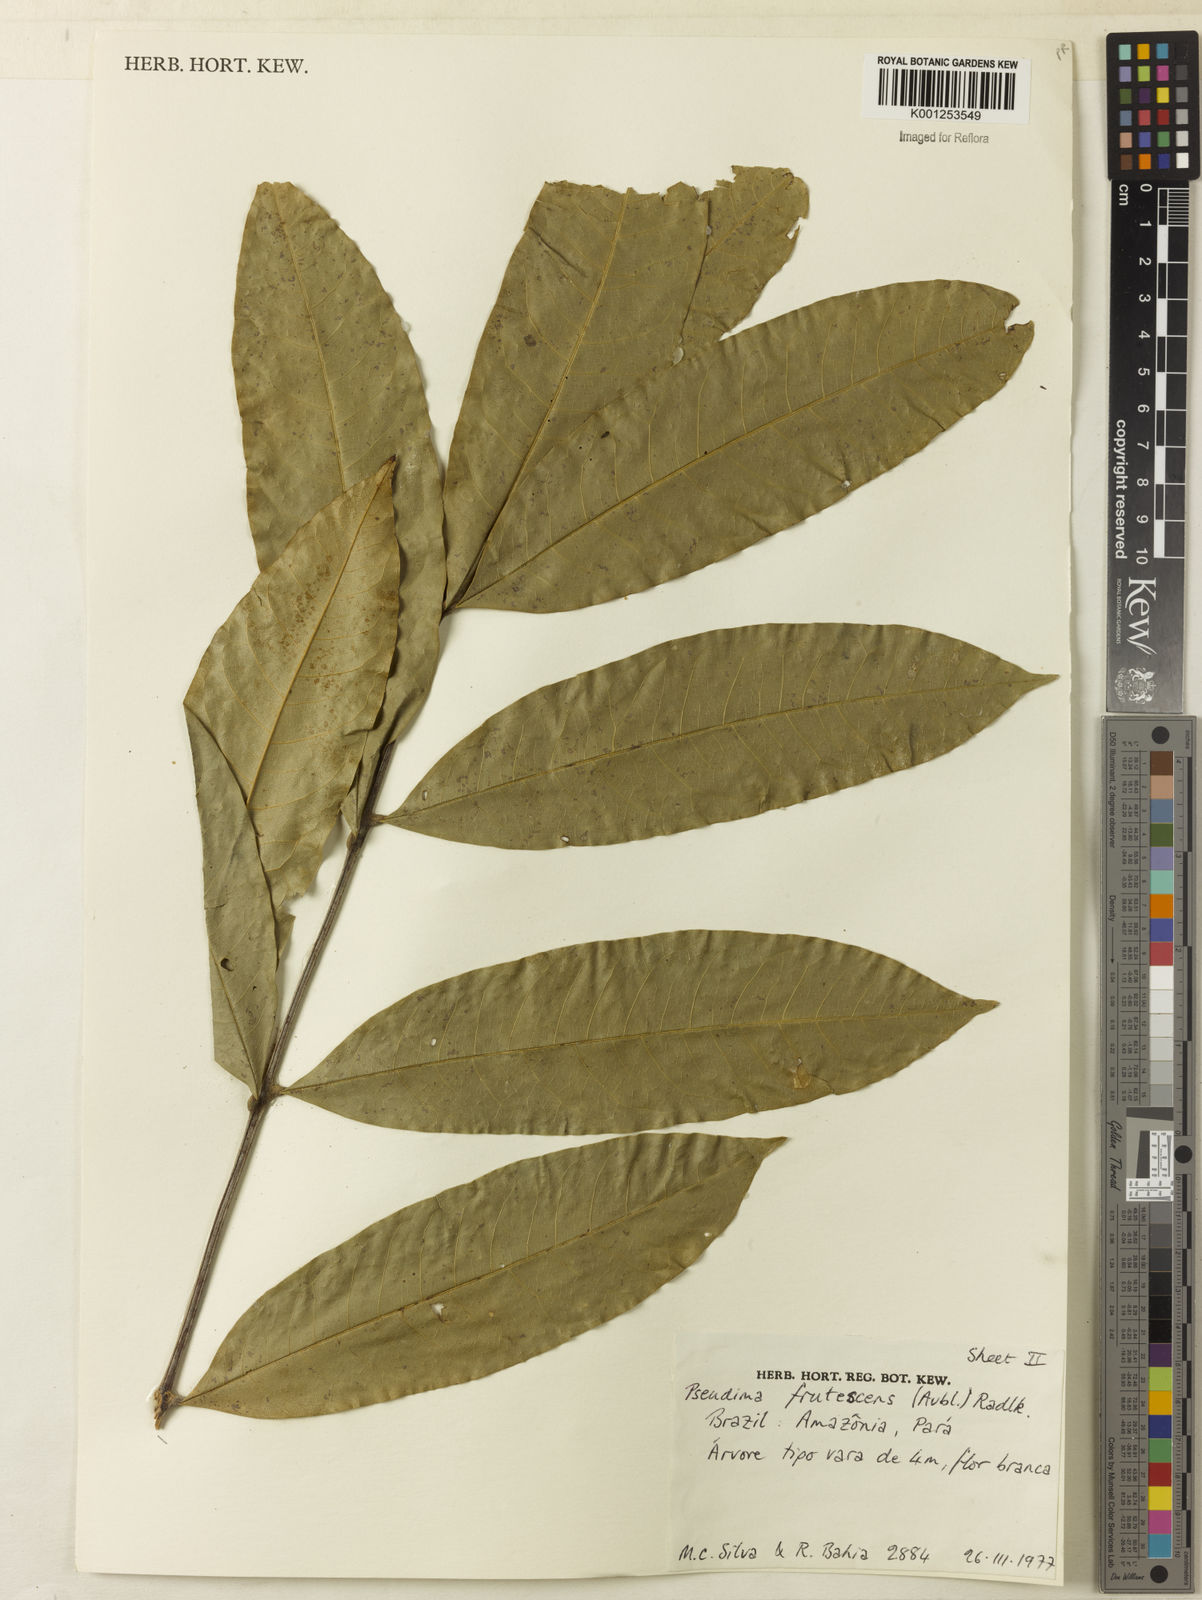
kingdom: Plantae
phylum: Tracheophyta
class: Magnoliopsida
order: Sapindales
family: Sapindaceae
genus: Pseudima
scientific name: Pseudima frutescens
